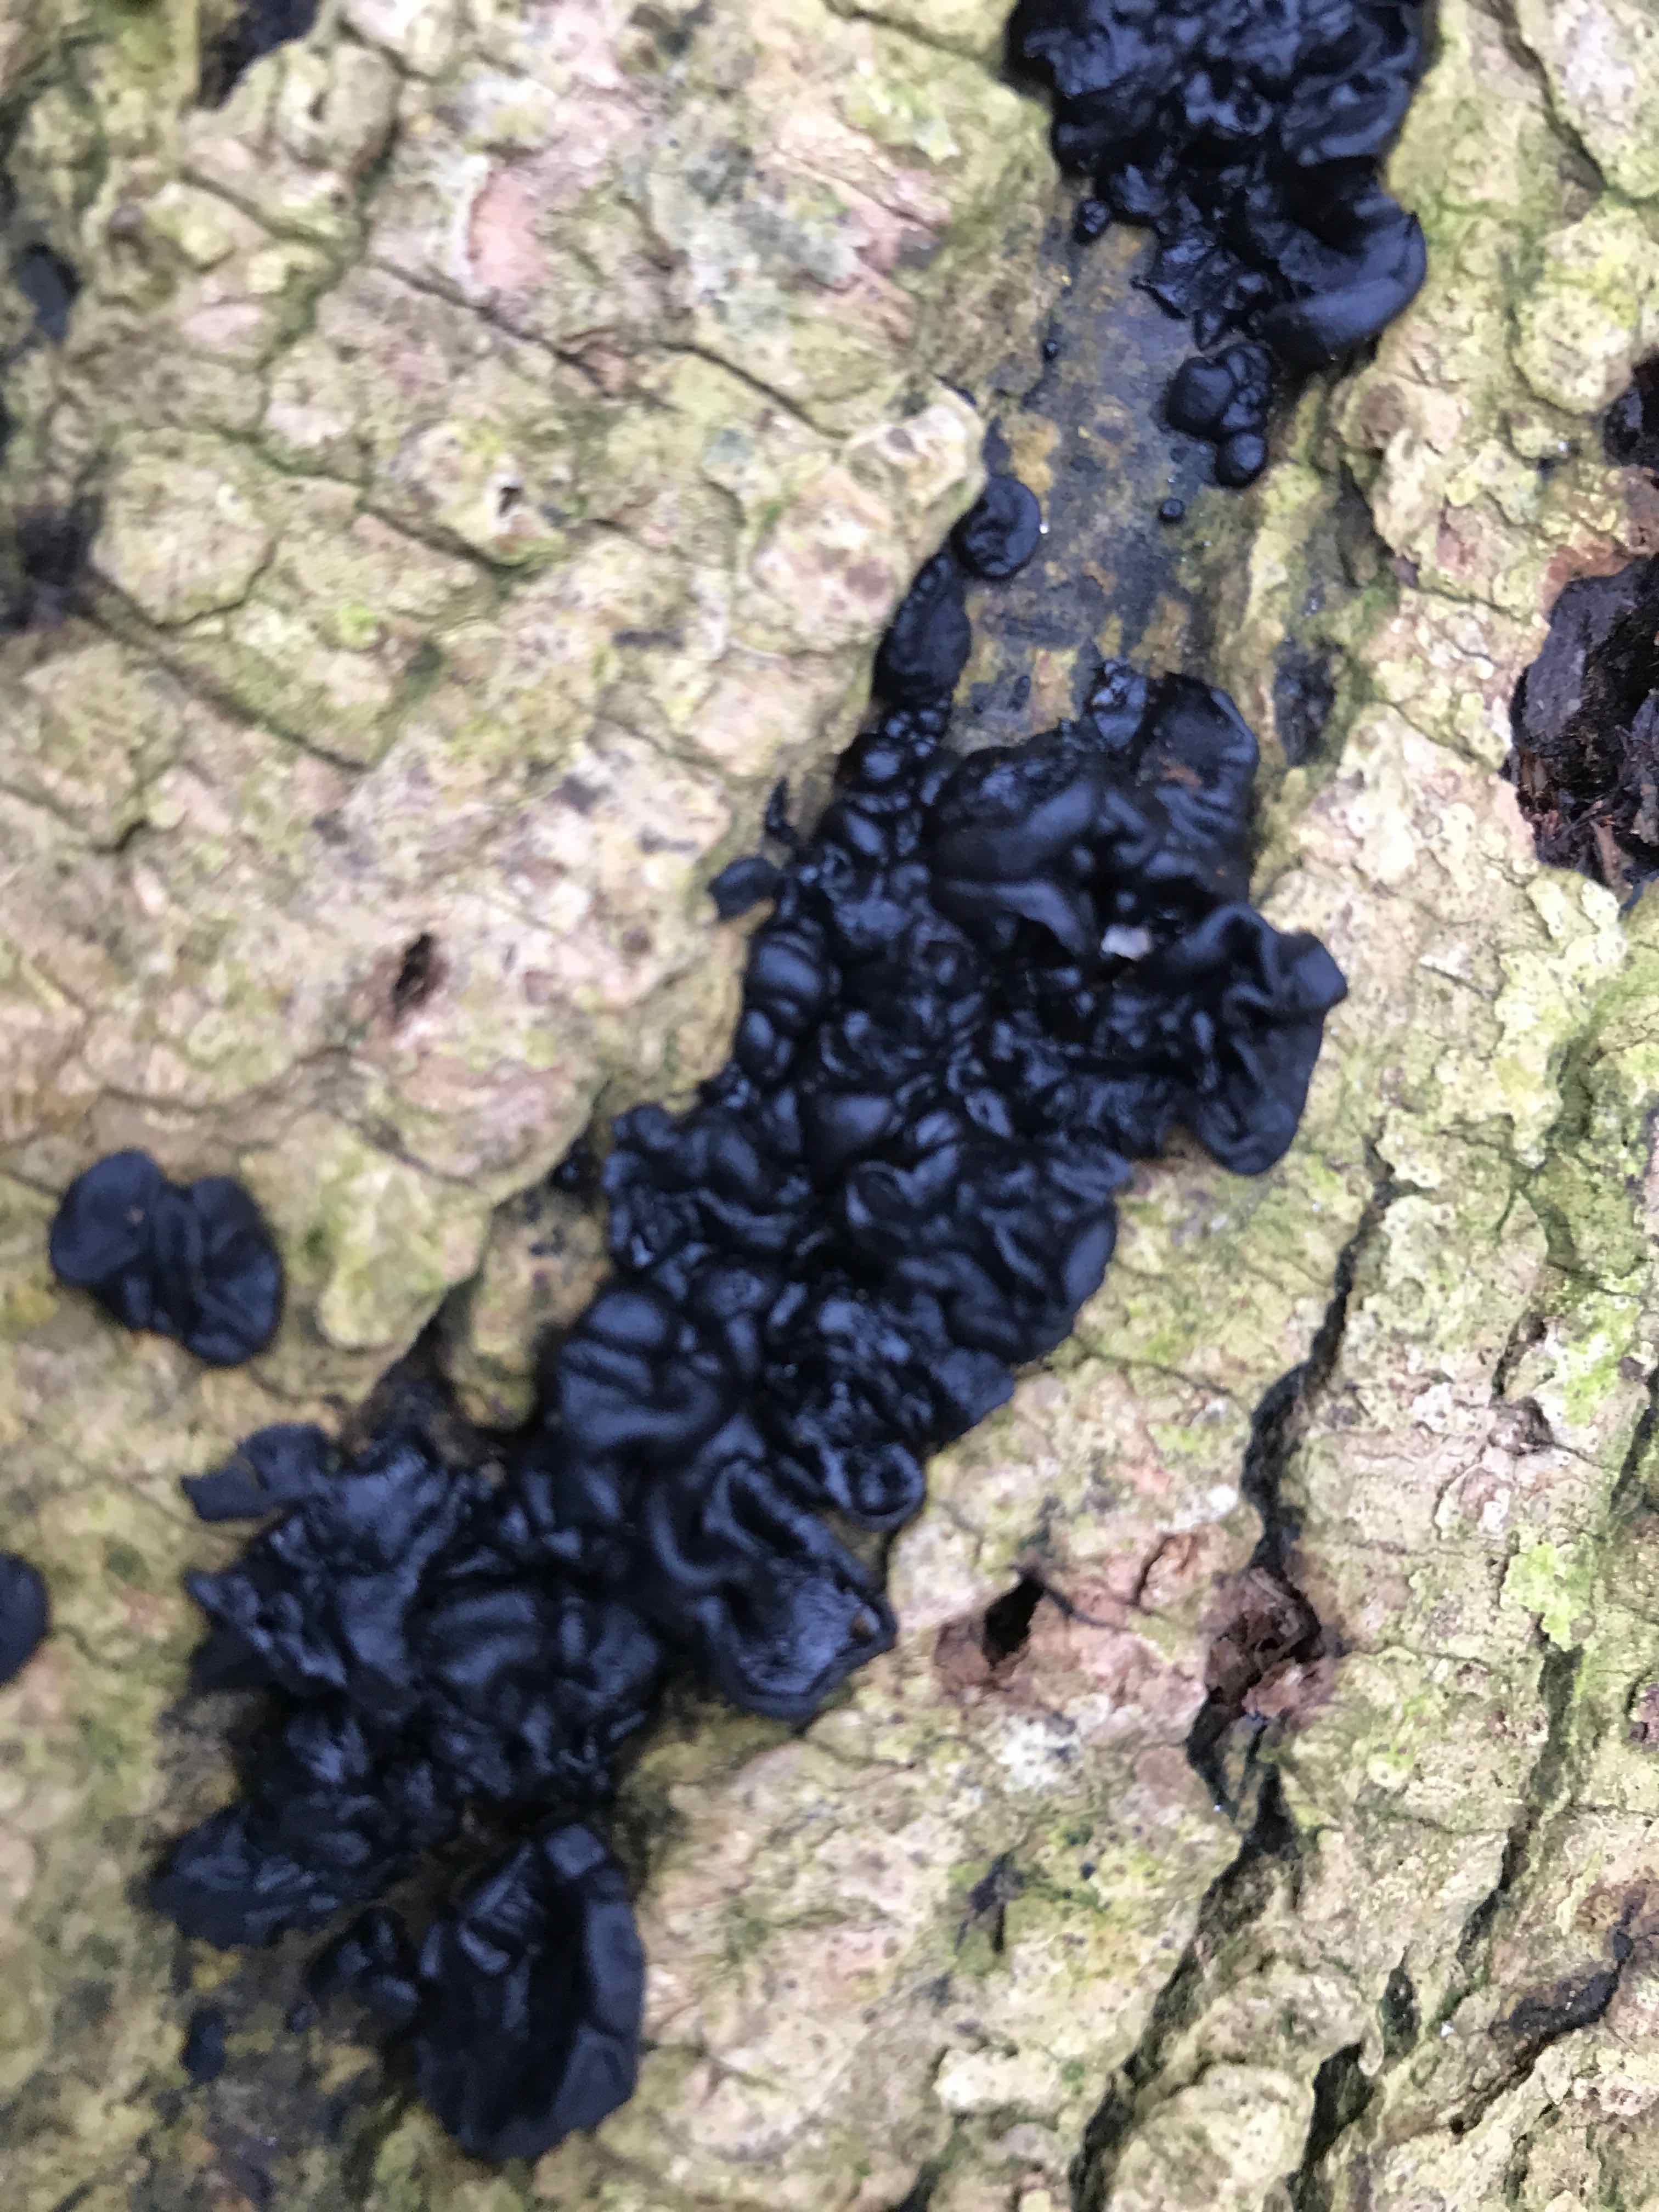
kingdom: Fungi
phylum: Basidiomycota
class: Agaricomycetes
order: Auriculariales
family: Auriculariaceae
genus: Exidia
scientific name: Exidia nigricans
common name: almindelig bævretop
